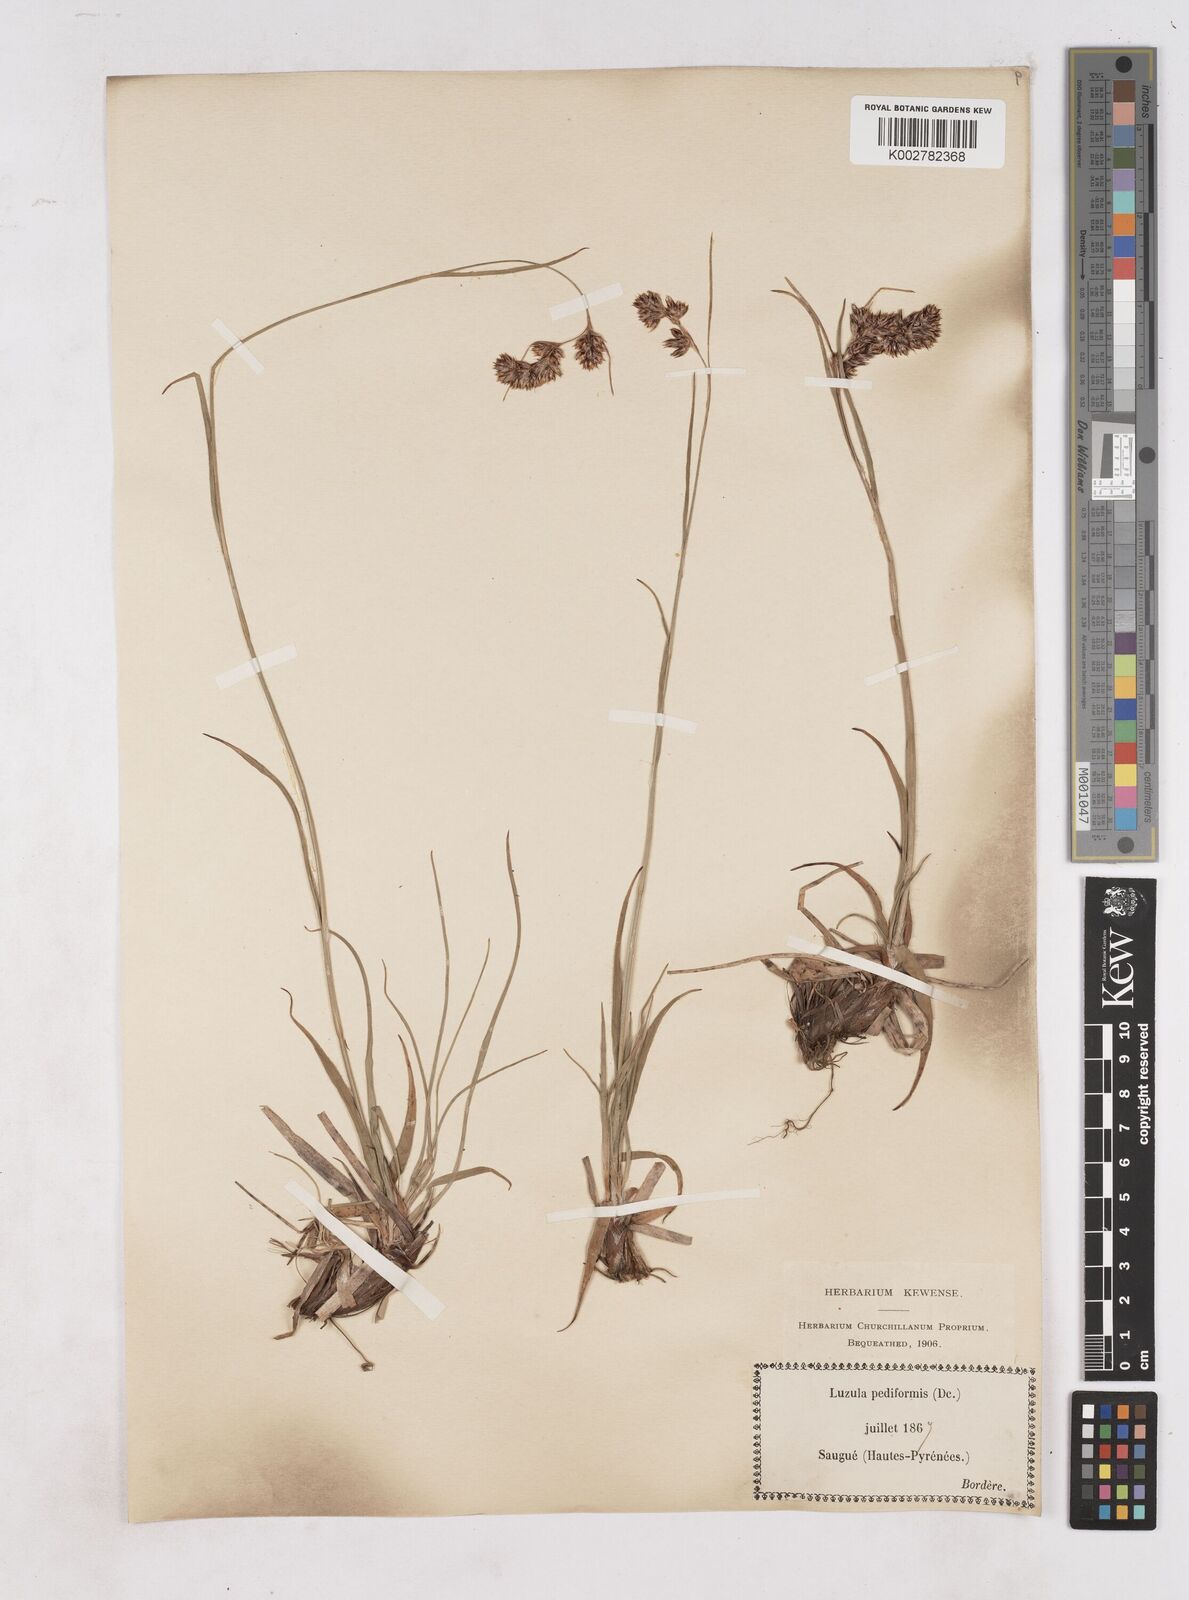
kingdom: Plantae
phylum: Tracheophyta
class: Liliopsida
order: Poales
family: Juncaceae
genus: Luzula
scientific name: Luzula pediformis
